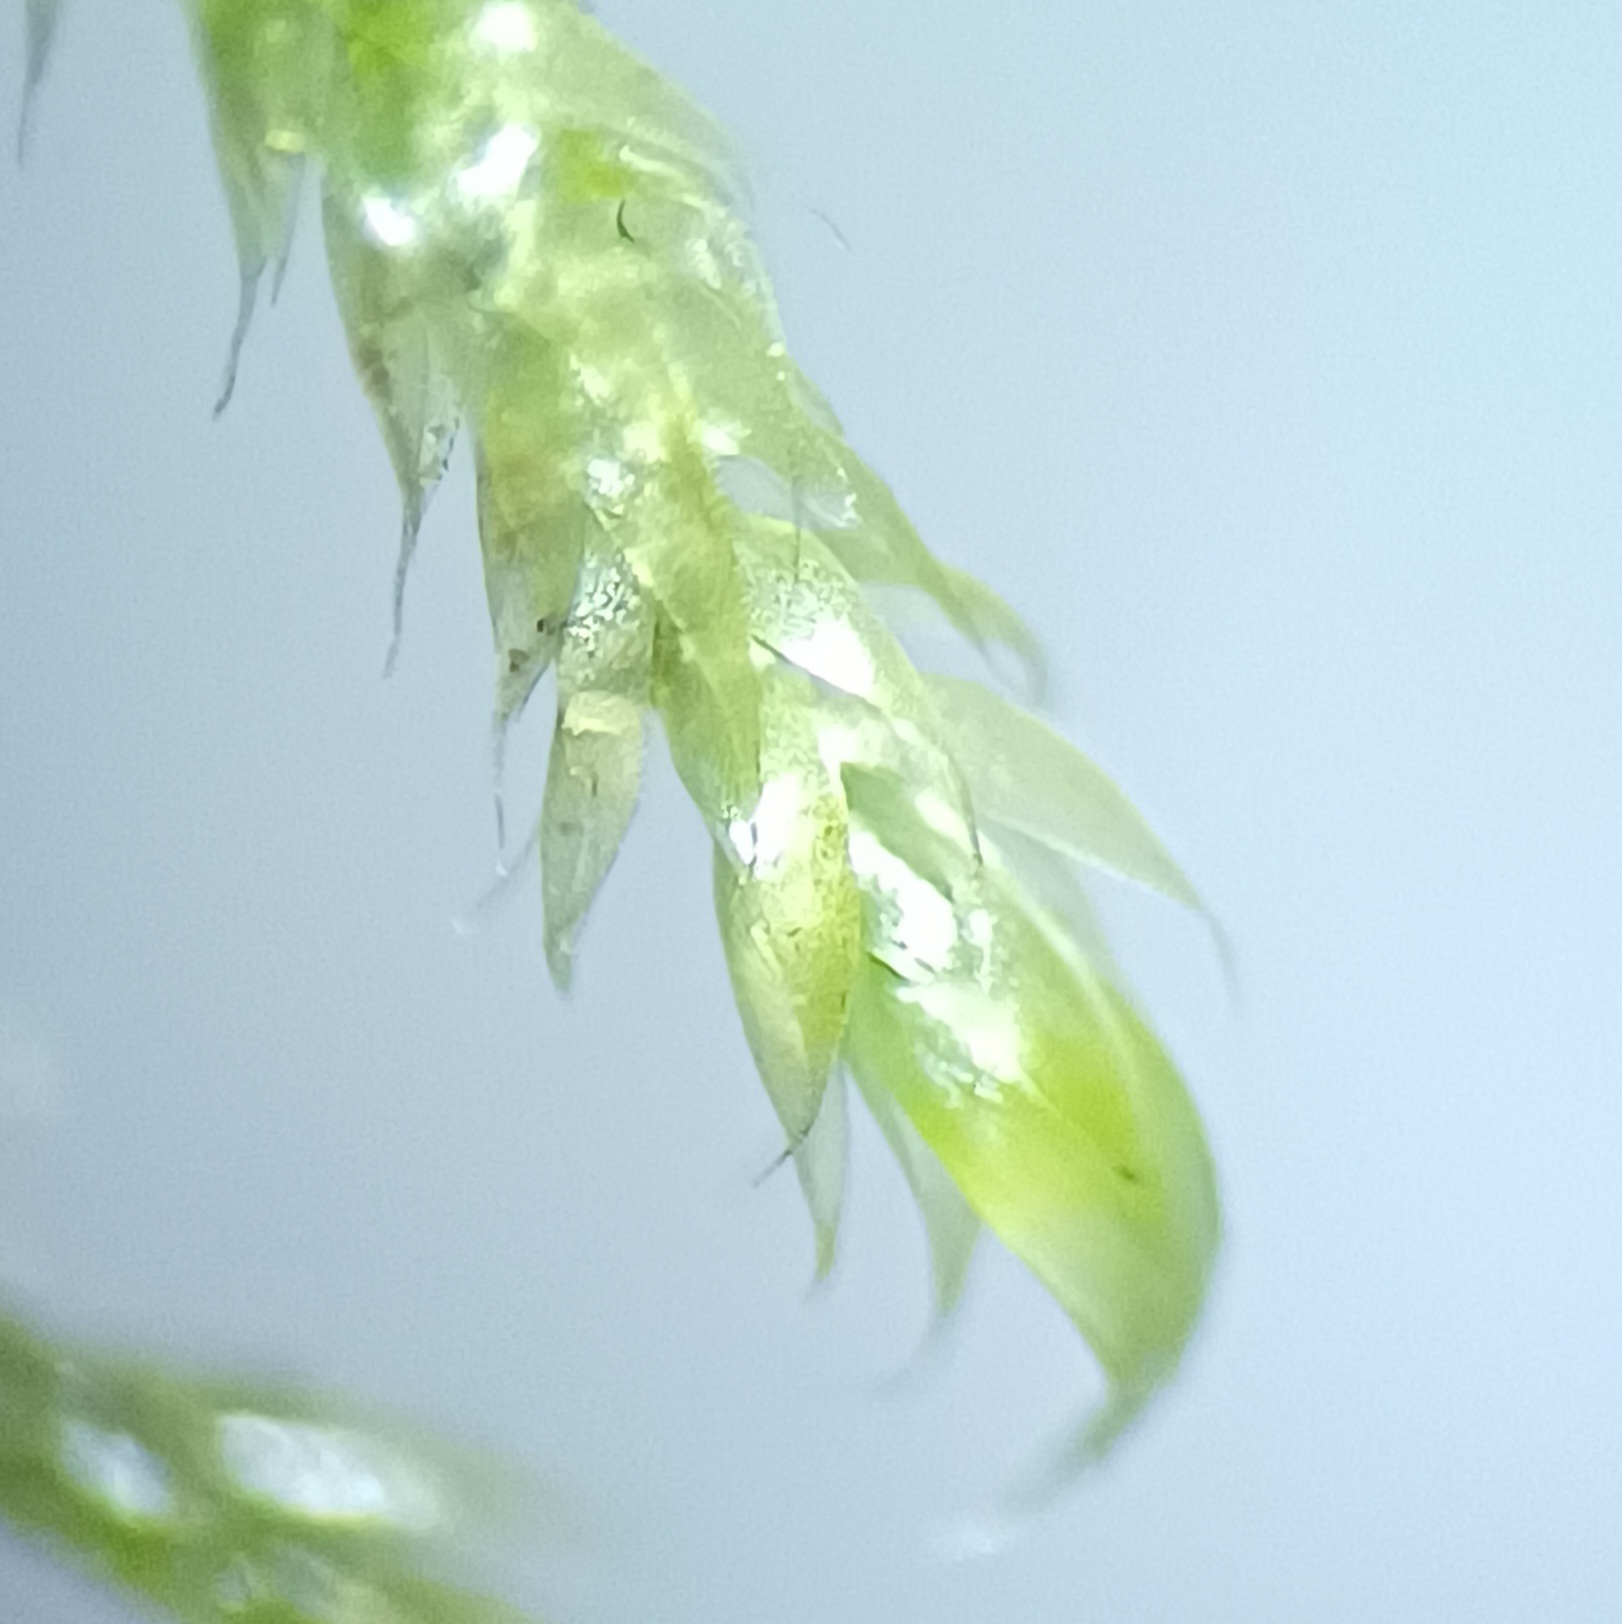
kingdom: Plantae
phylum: Bryophyta
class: Bryopsida
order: Hypnales
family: Hypnaceae
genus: Hypnum
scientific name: Hypnum cupressiforme
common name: Almindelig cypresmos
